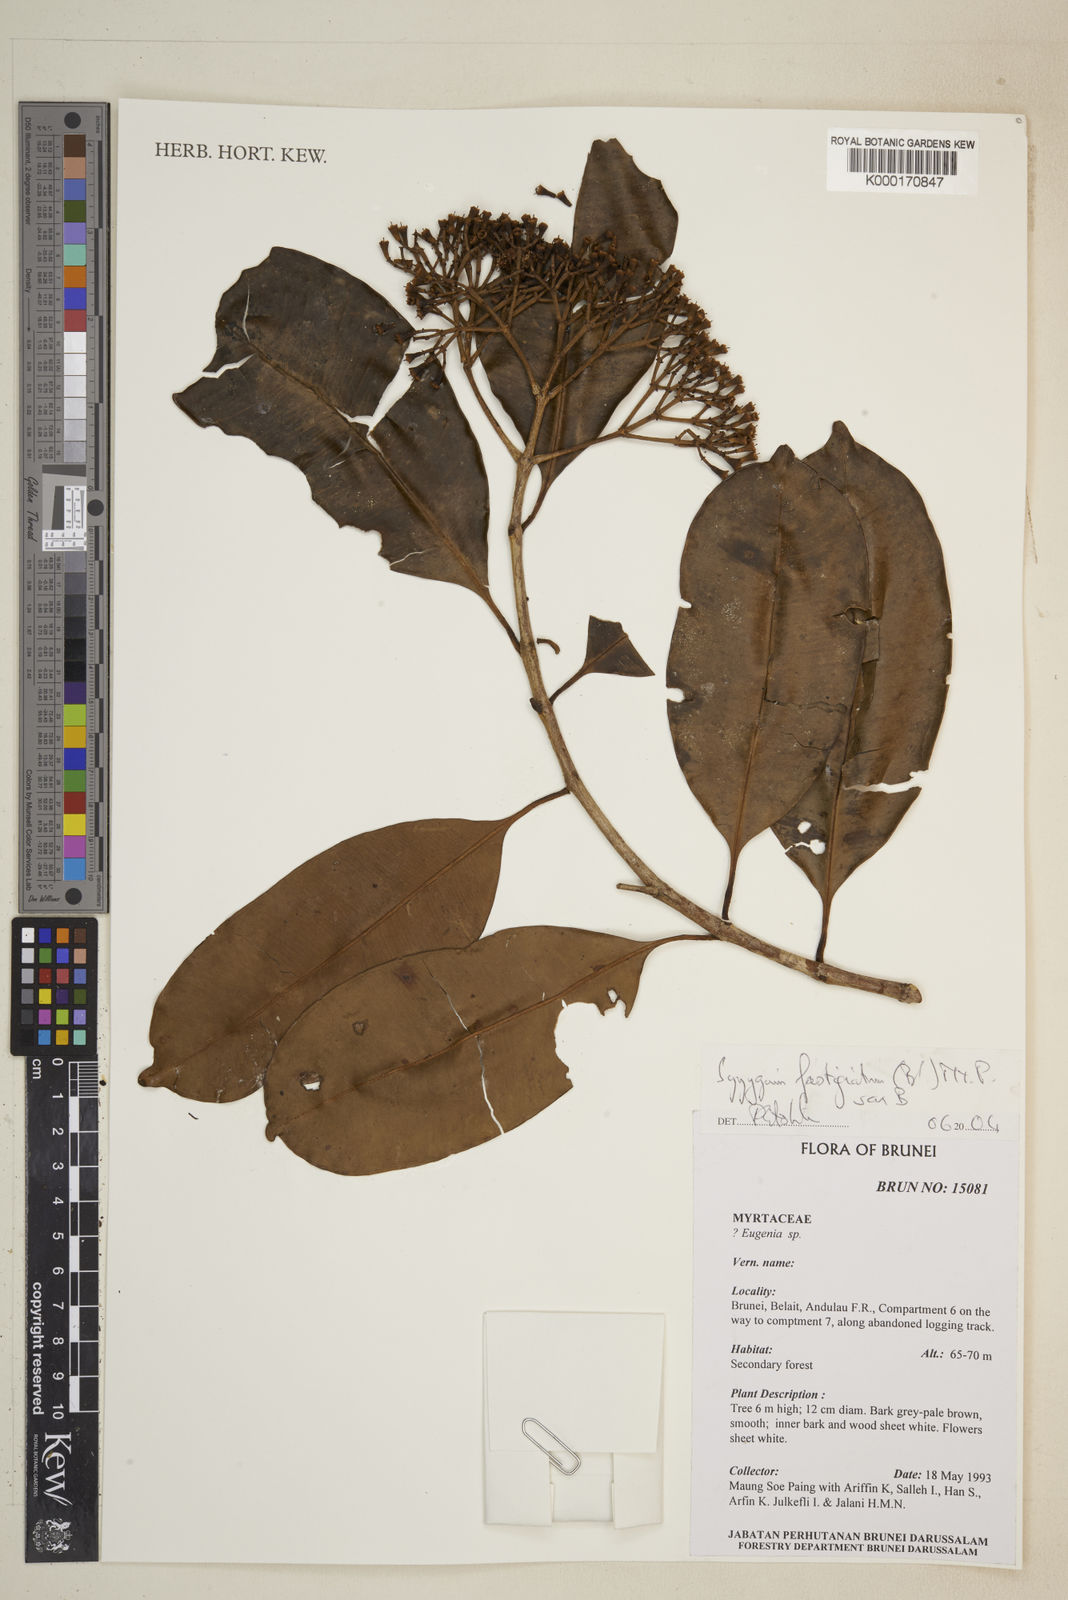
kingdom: Plantae
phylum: Tracheophyta
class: Magnoliopsida
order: Myrtales
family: Myrtaceae
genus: Syzygium
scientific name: Syzygium fastigiatum
